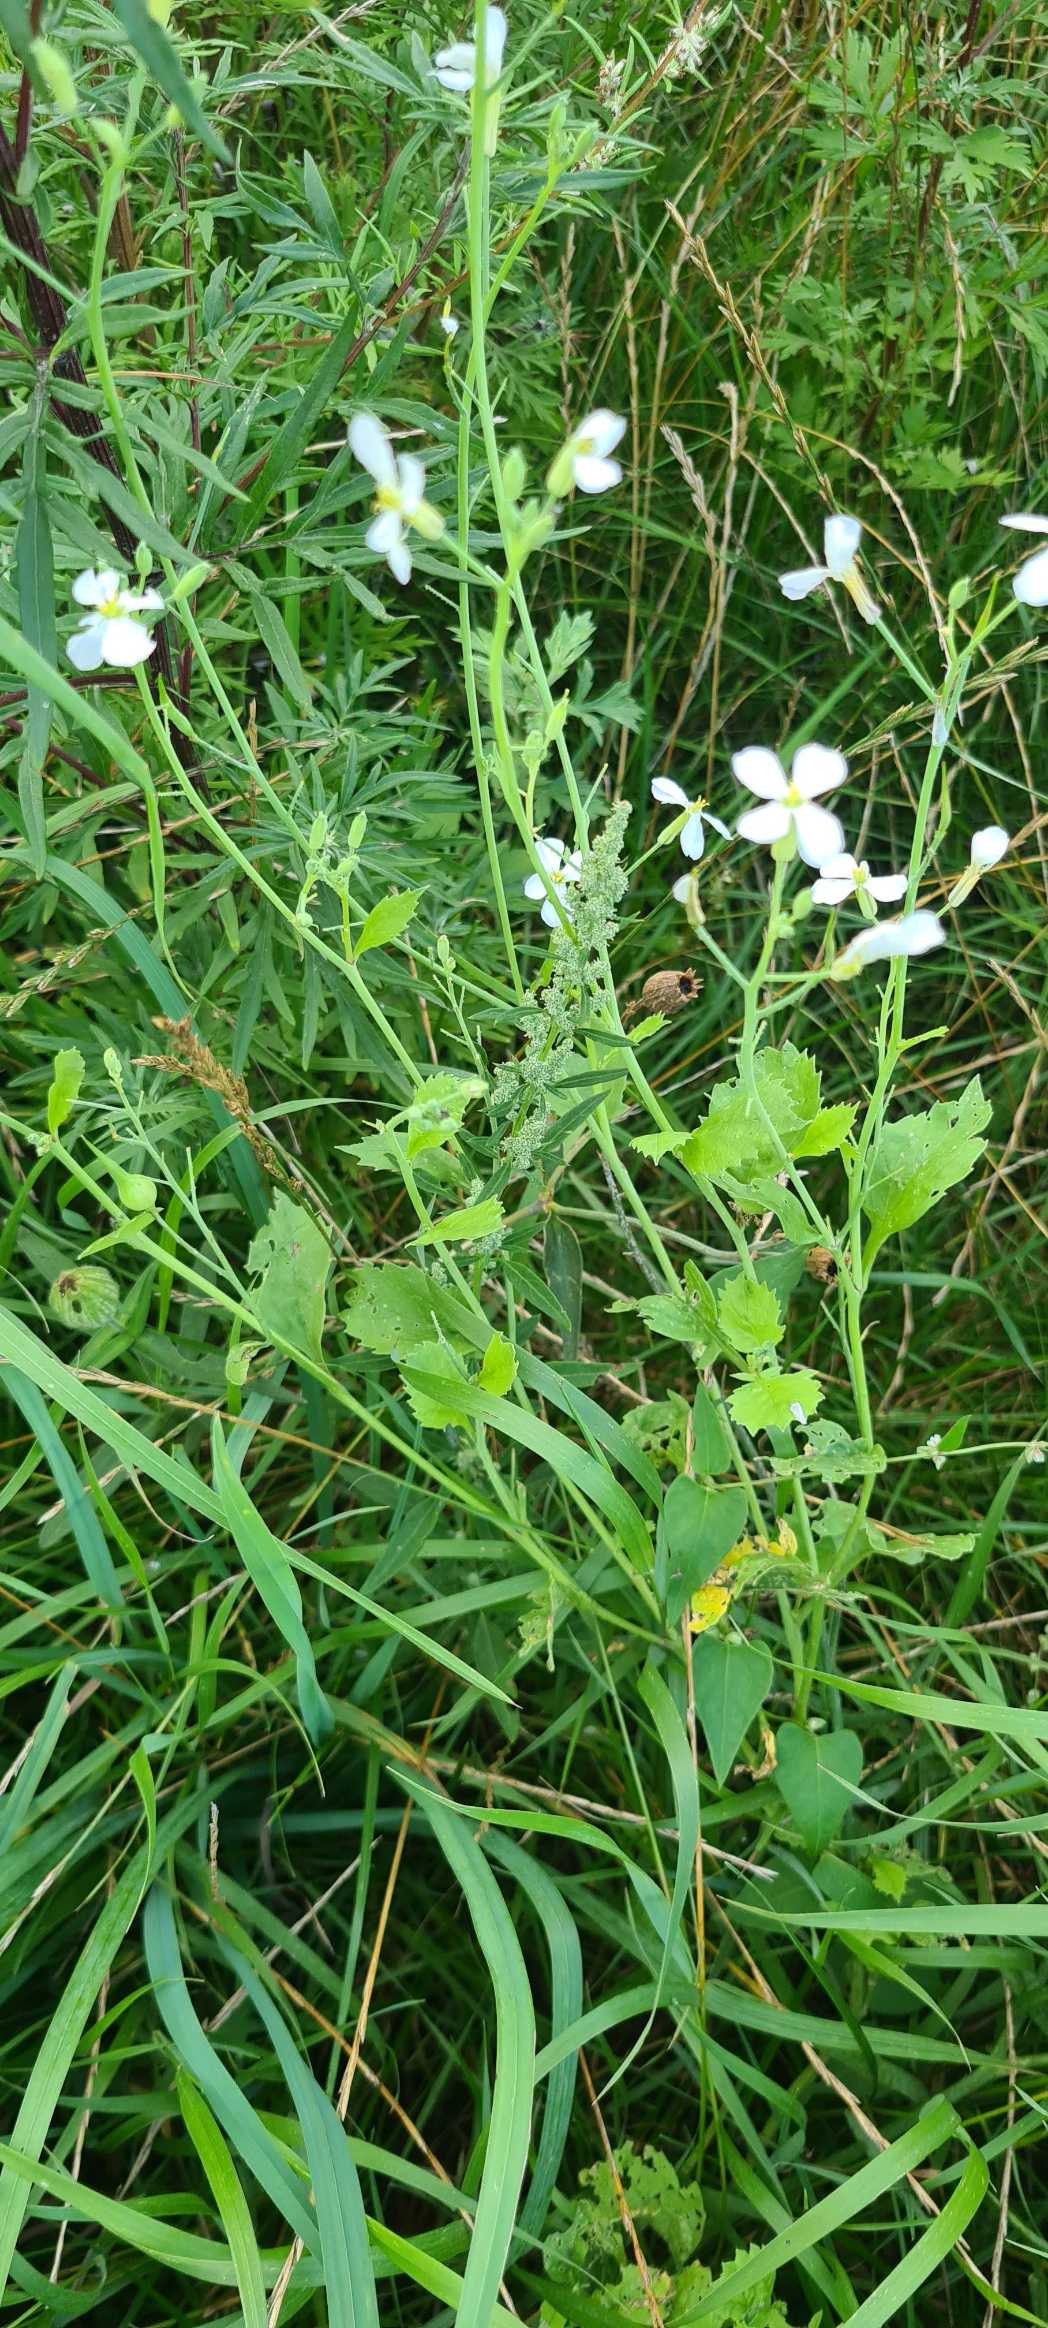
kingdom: Plantae
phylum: Tracheophyta
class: Magnoliopsida
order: Brassicales
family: Brassicaceae
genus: Raphanus
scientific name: Raphanus sativus
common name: Olie-ræddike
